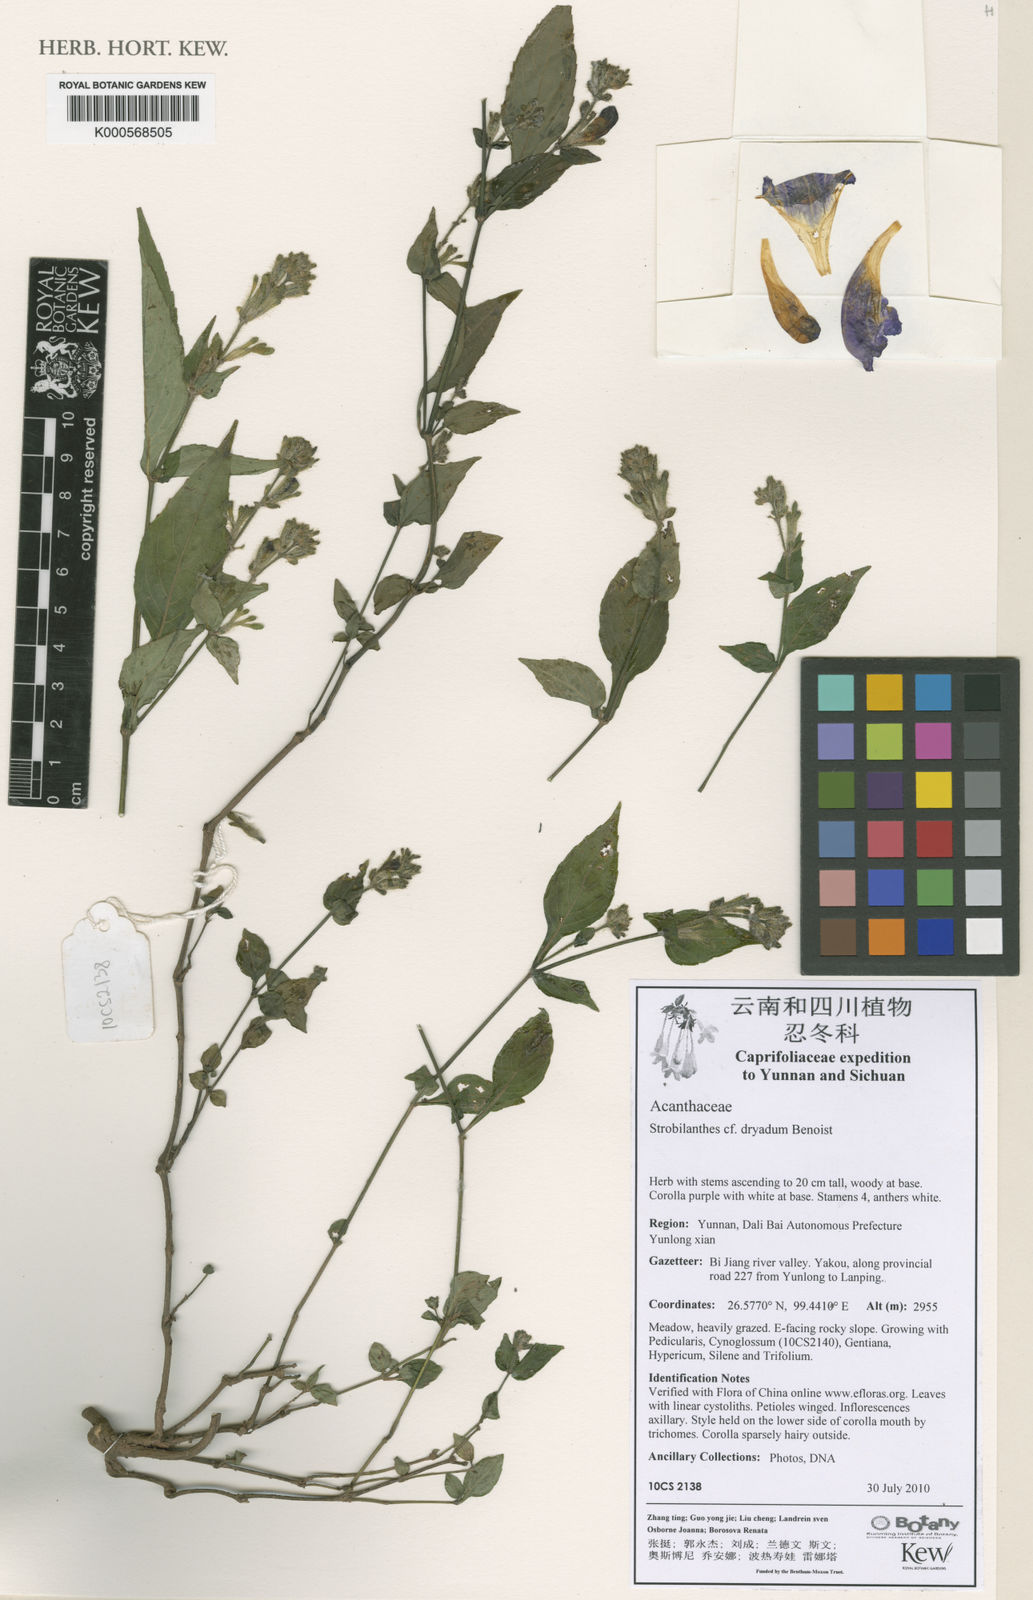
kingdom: Plantae
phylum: Tracheophyta
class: Magnoliopsida
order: Lamiales
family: Acanthaceae
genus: Strobilanthes
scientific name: Strobilanthes extensa
